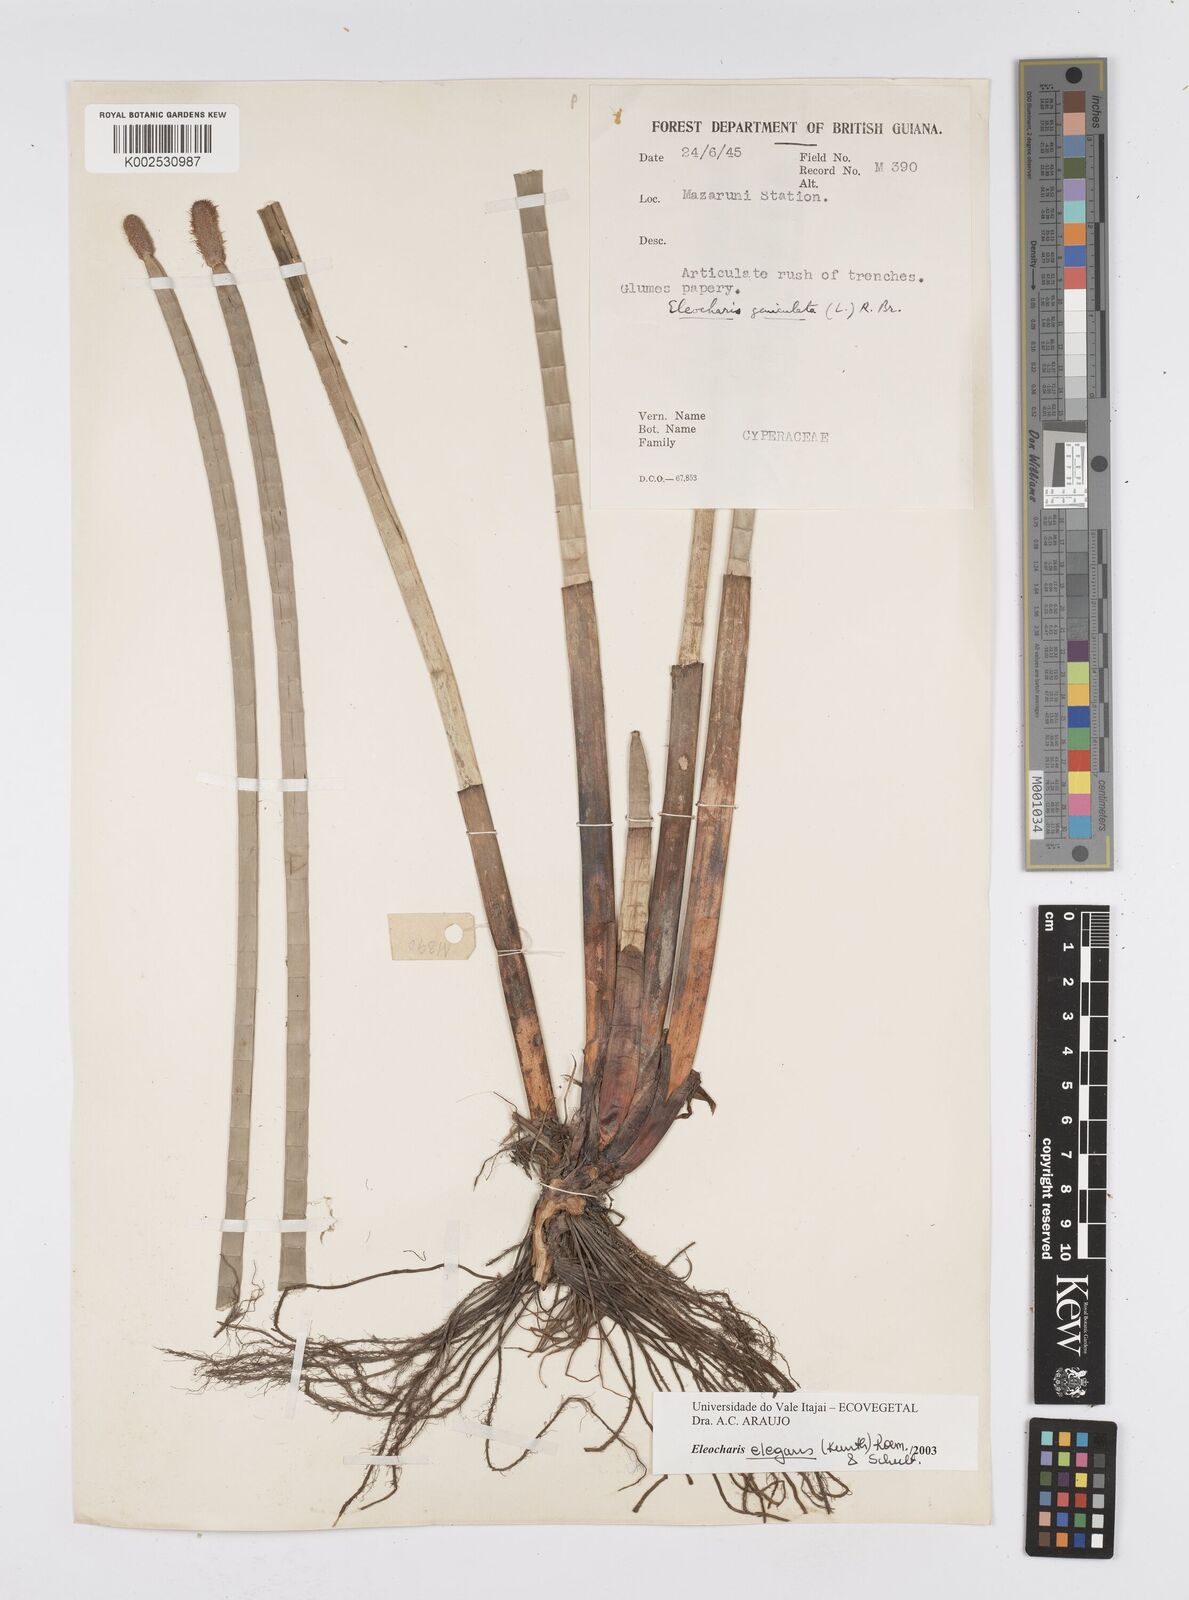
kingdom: Plantae
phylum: Tracheophyta
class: Liliopsida
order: Poales
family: Cyperaceae
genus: Eleocharis
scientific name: Eleocharis elegans
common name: Elegant spike-rush
